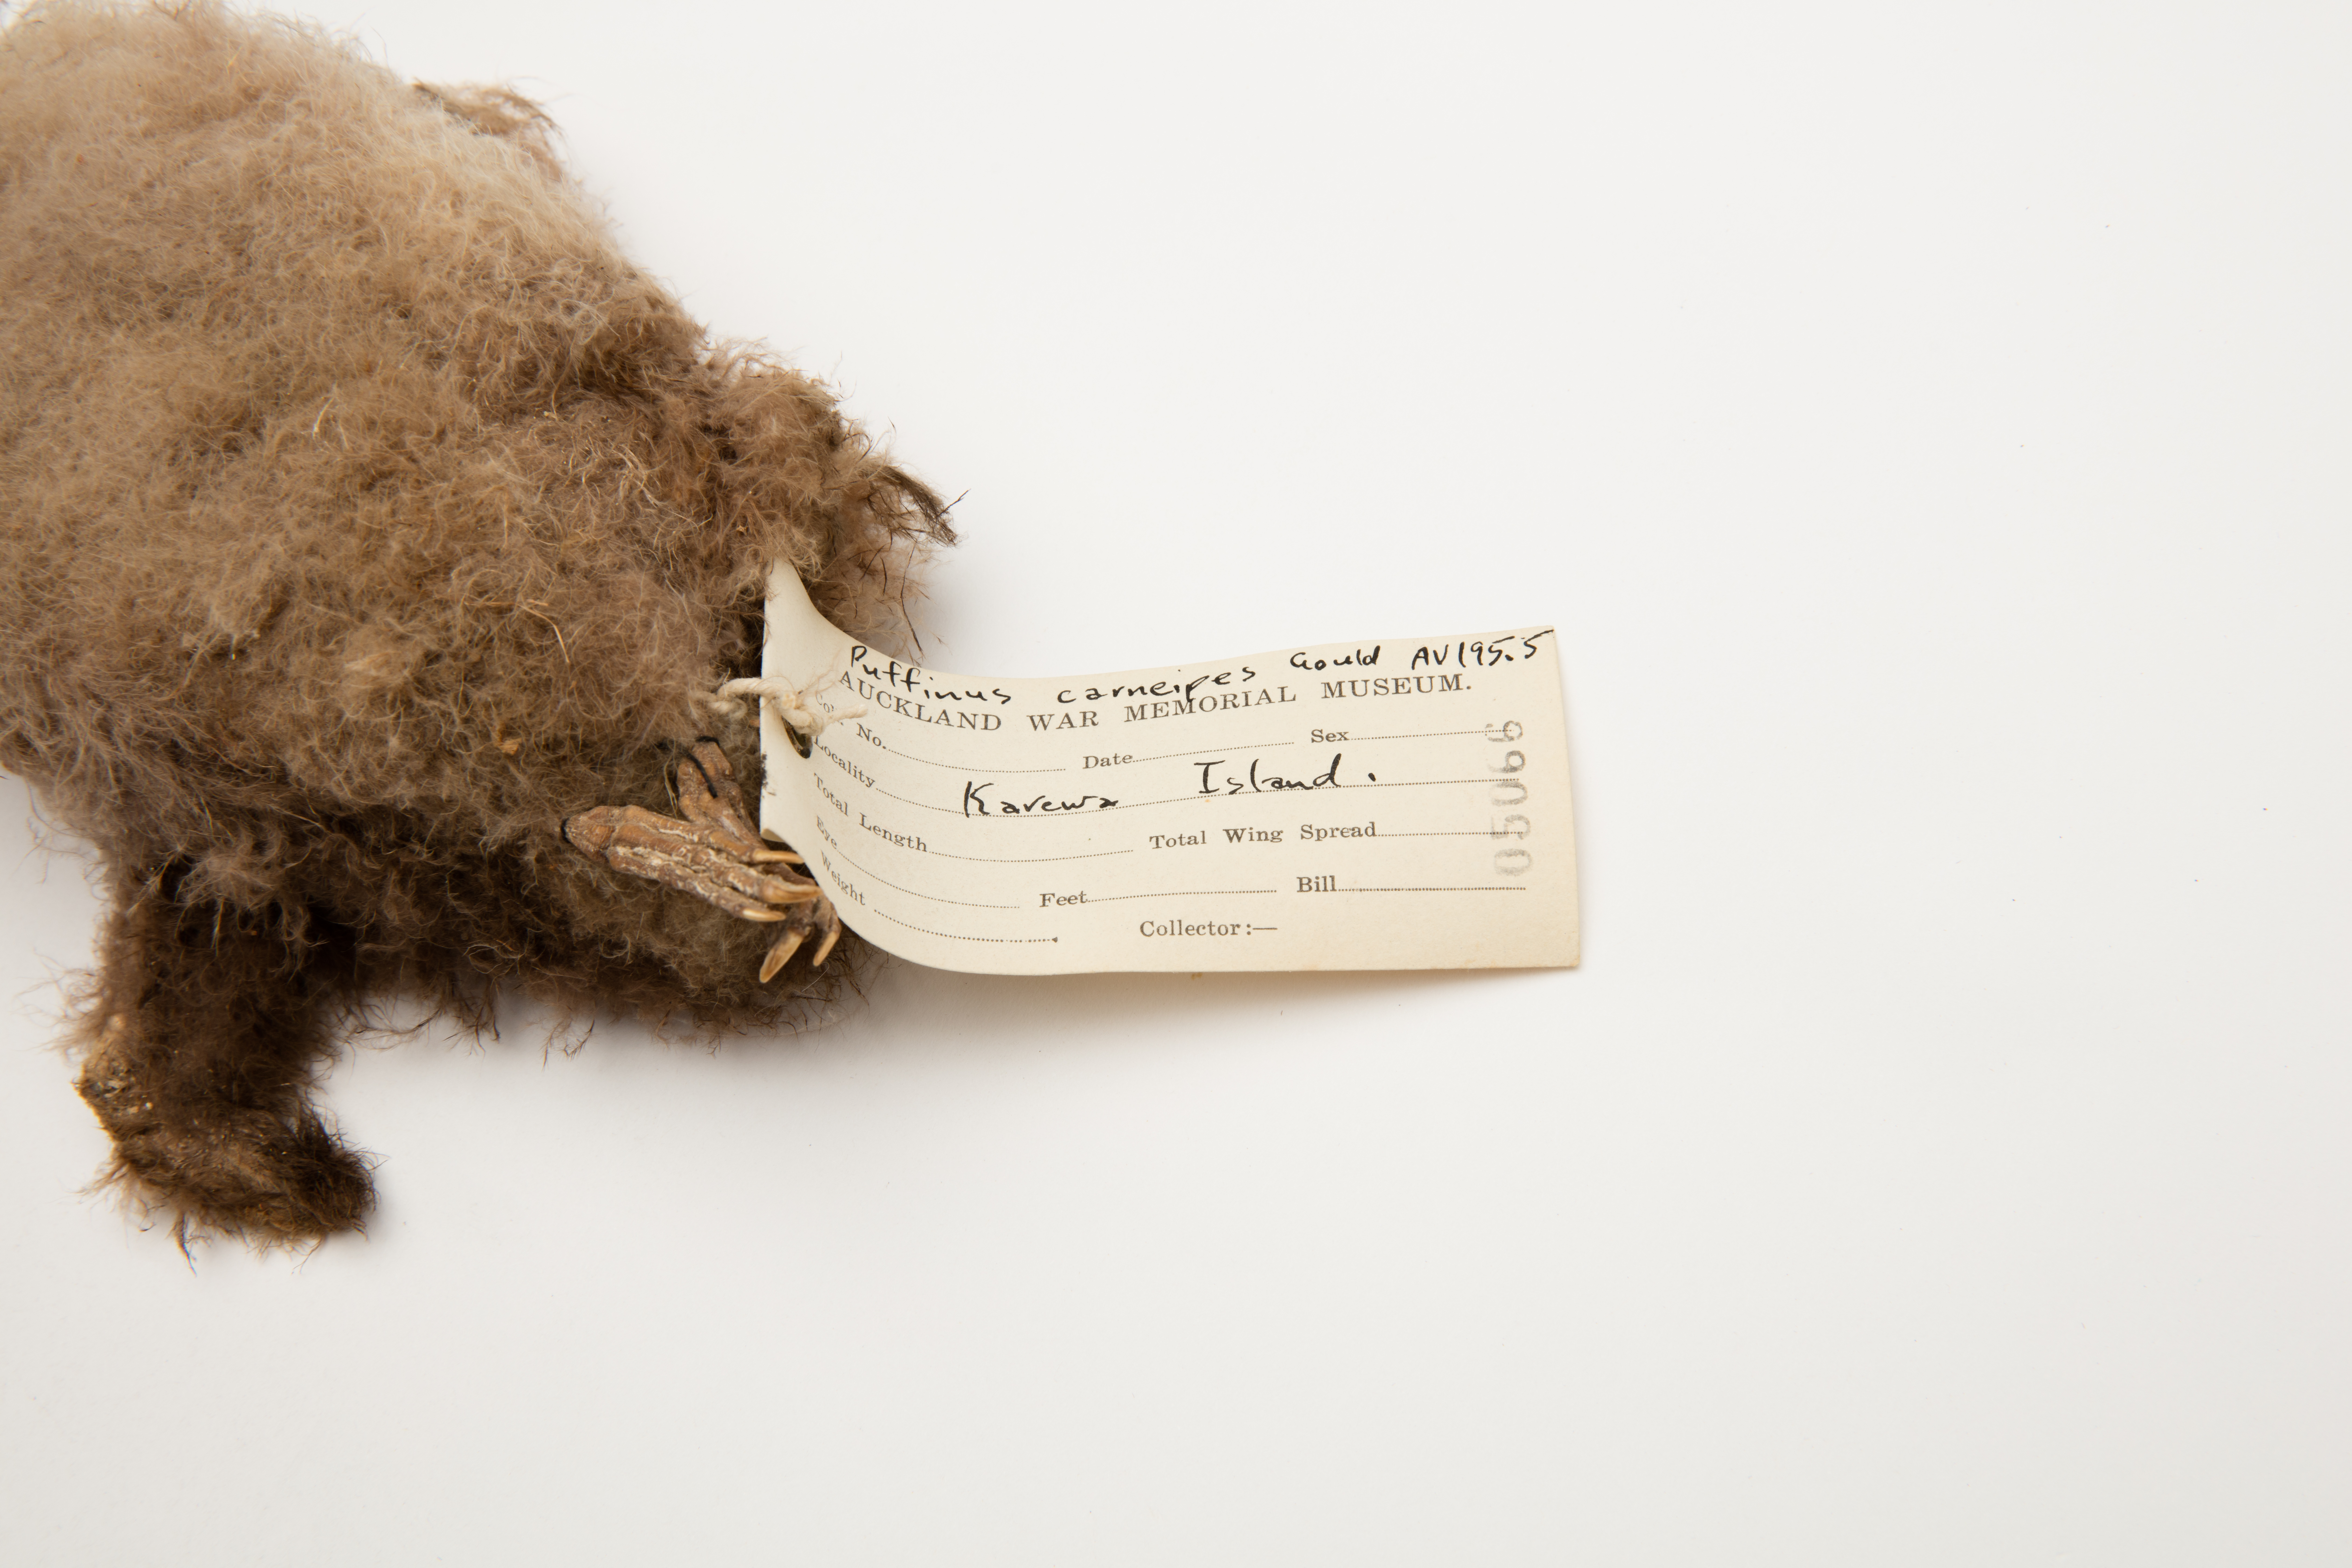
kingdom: Animalia
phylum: Chordata
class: Aves
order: Procellariiformes
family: Procellariidae
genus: Puffinus
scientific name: Puffinus carneipes
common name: Flesh-footed shearwater
